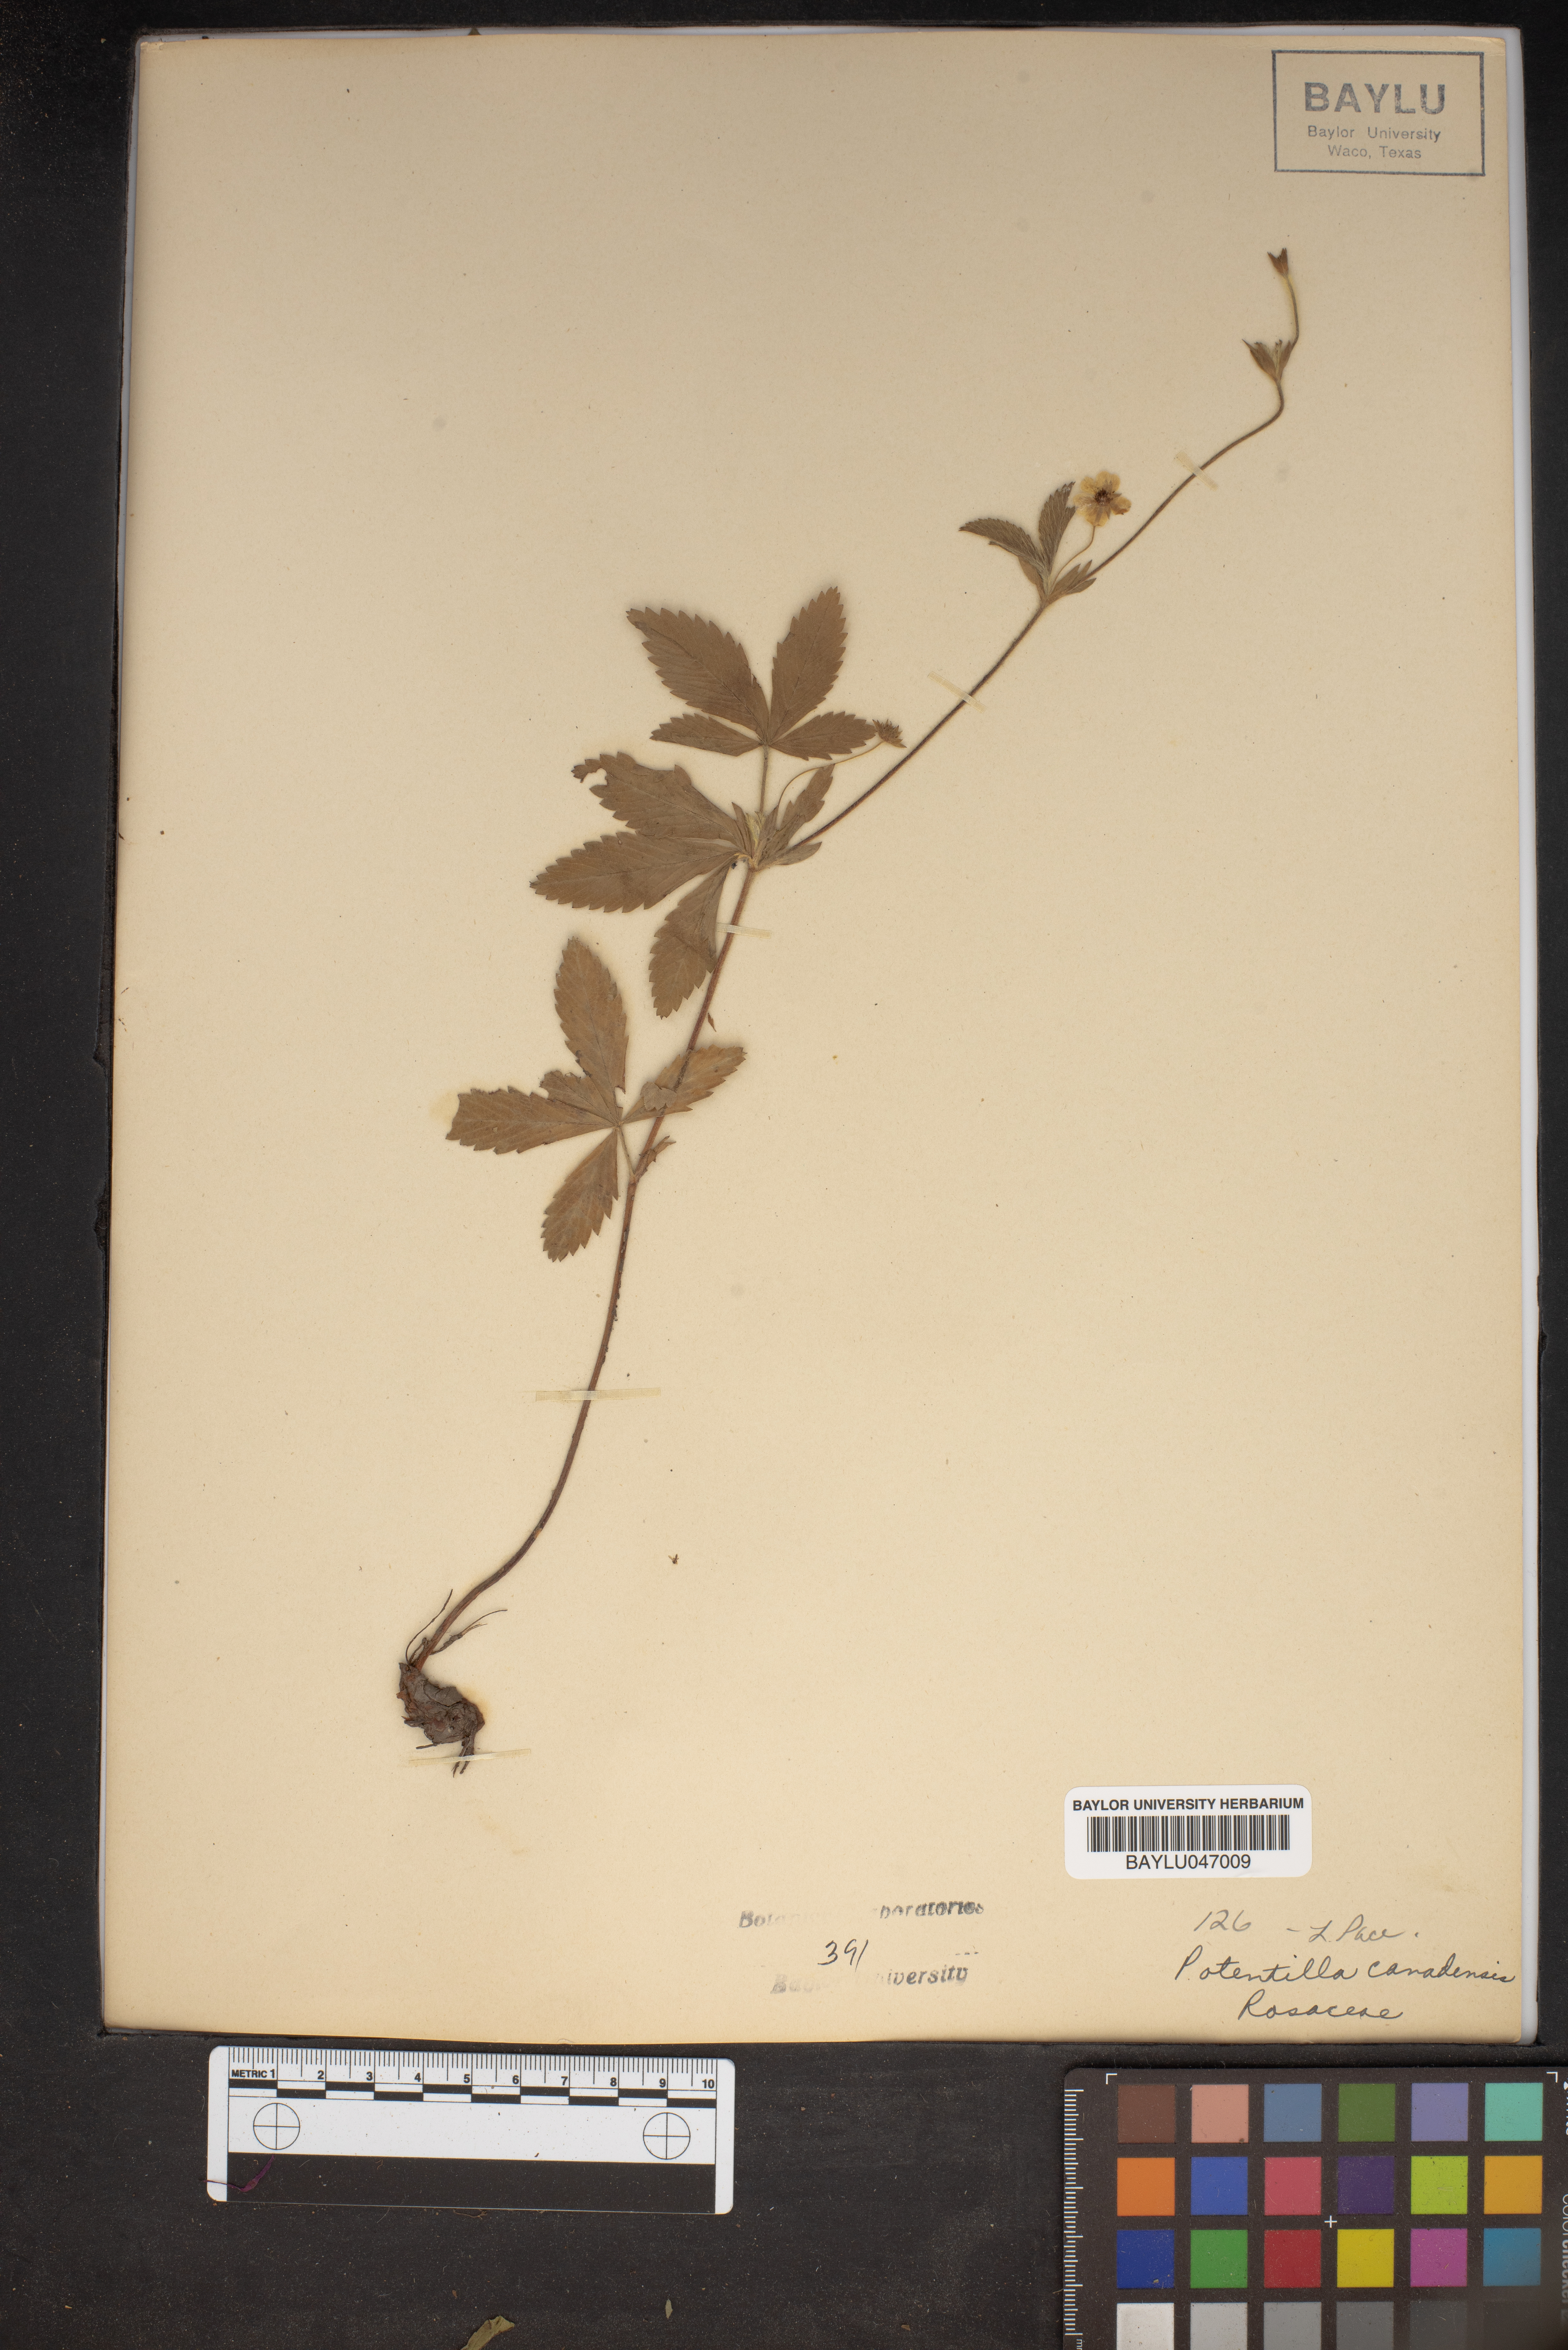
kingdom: Plantae
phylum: Tracheophyta
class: Magnoliopsida
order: Rosales
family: Rosaceae
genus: Potentilla
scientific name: Potentilla canadensis
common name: Canada cinquefoil
